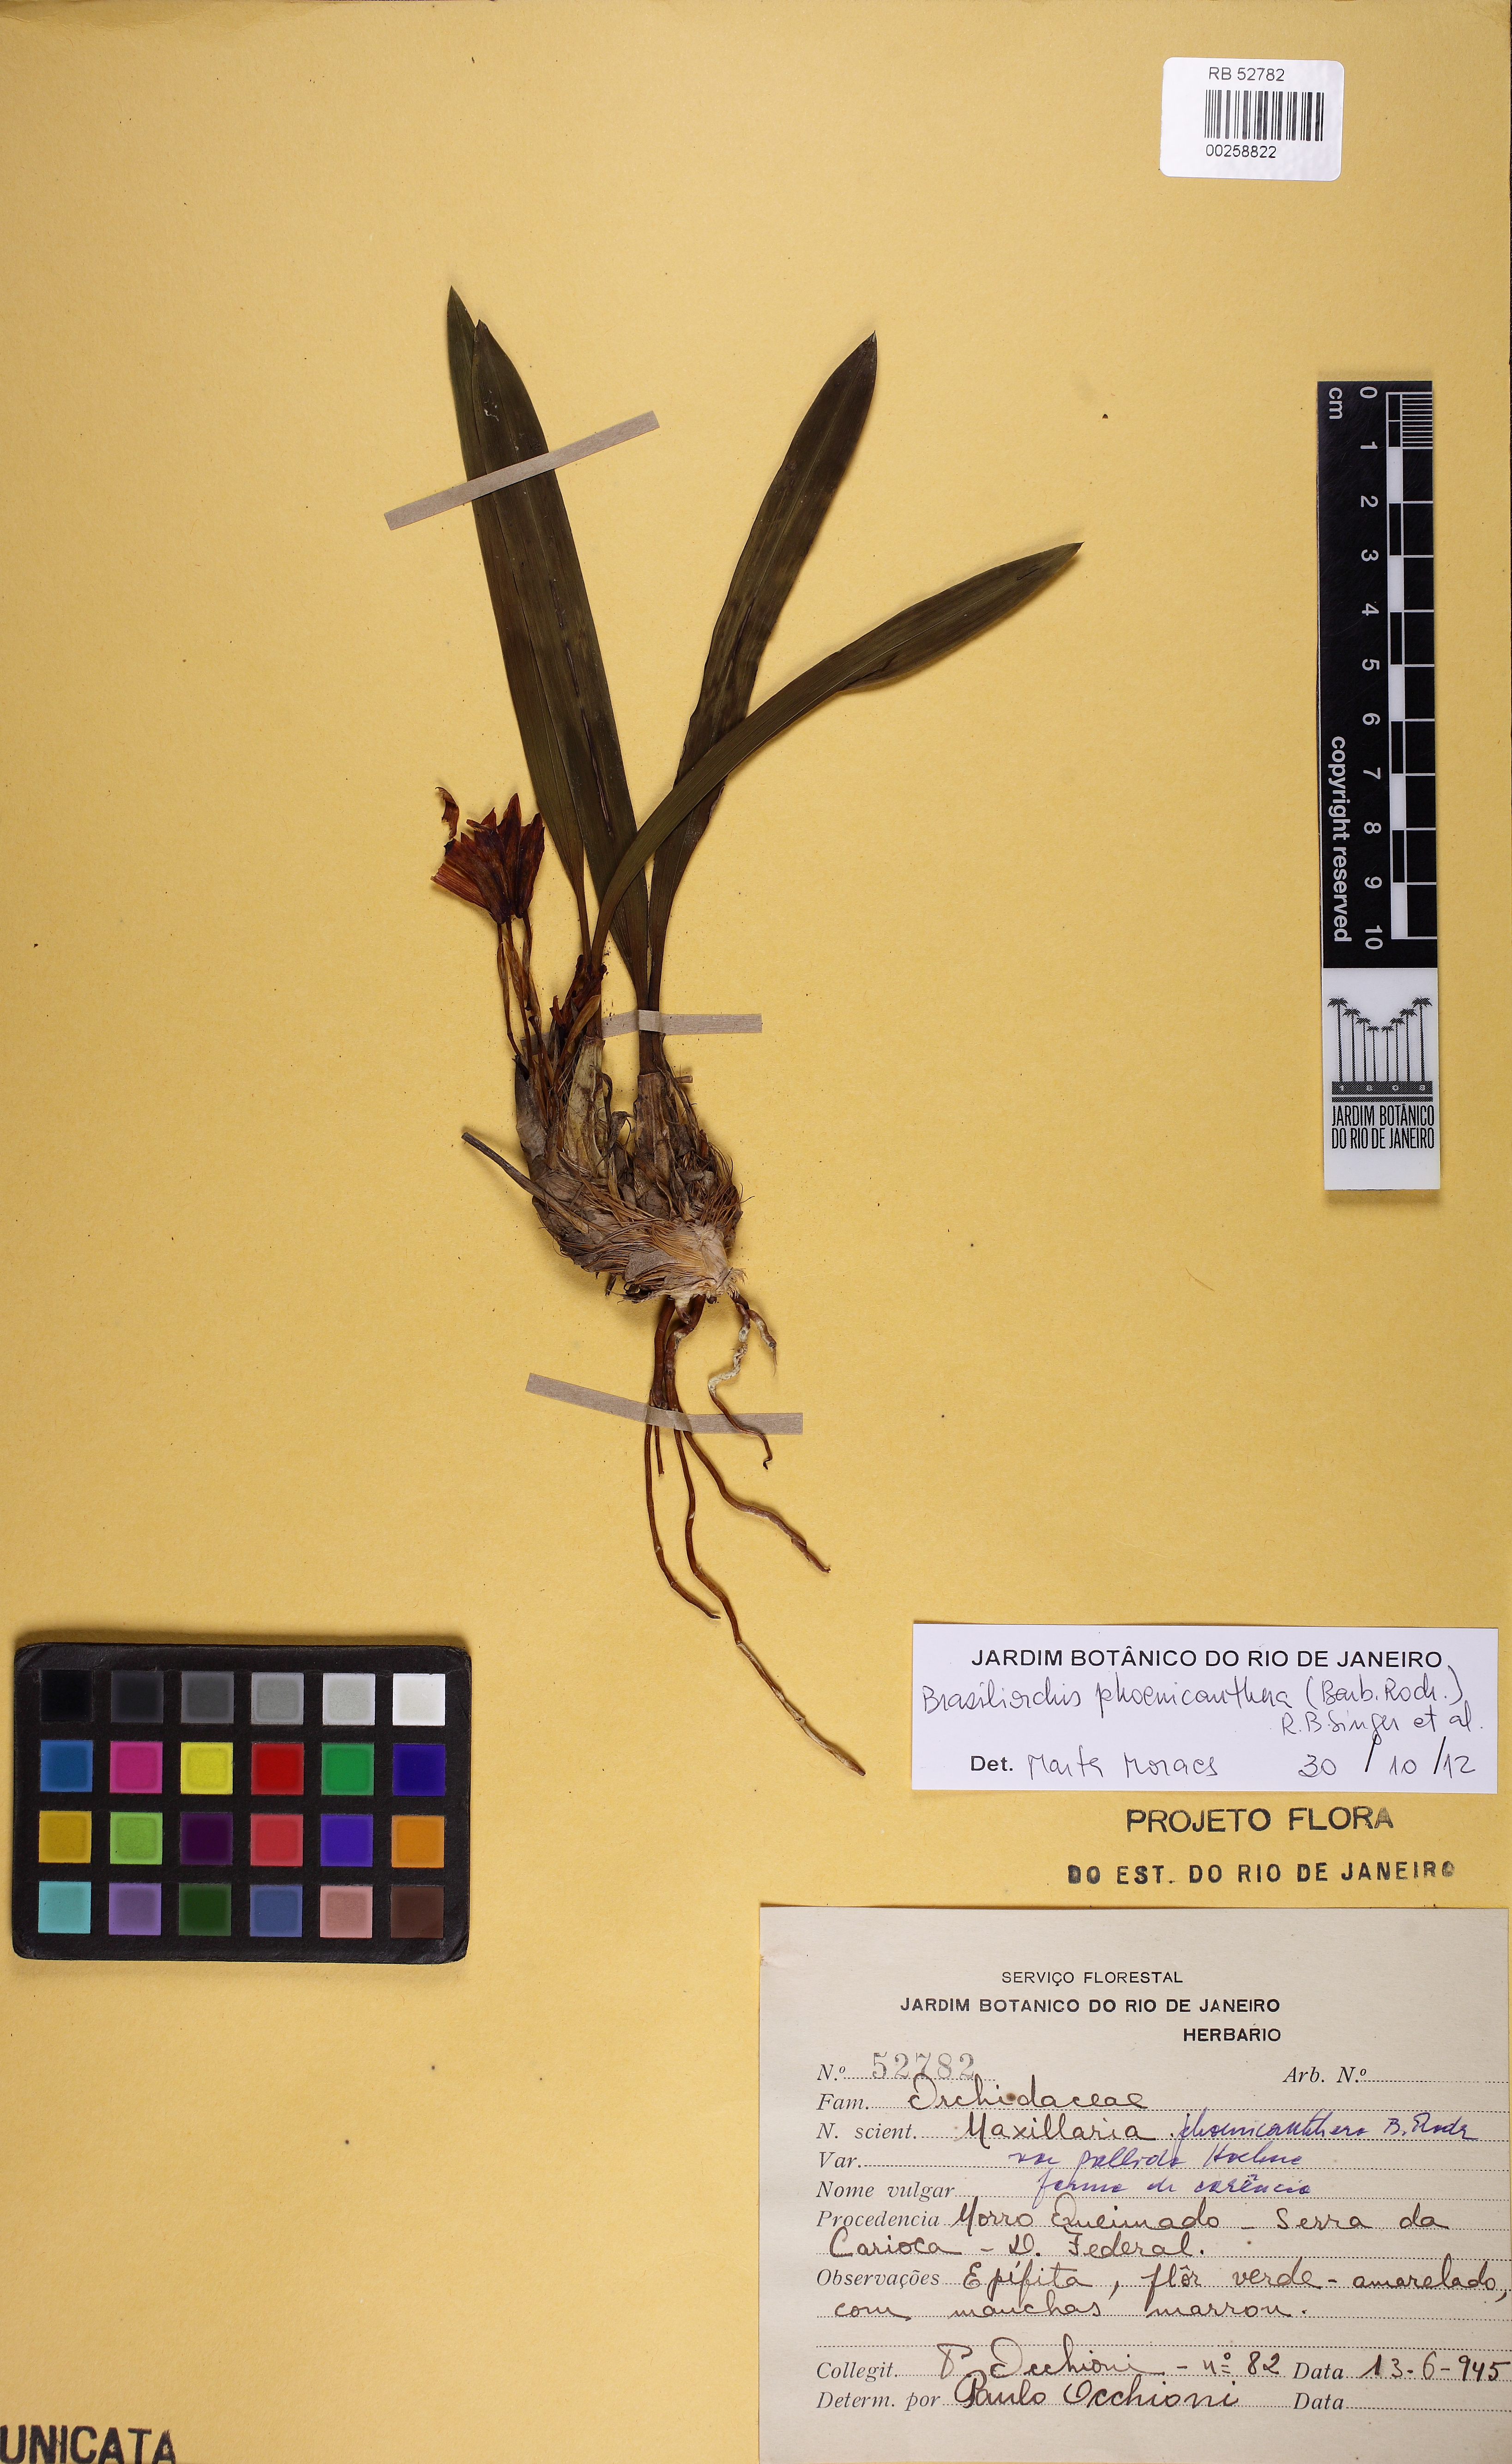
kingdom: Plantae
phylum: Tracheophyta
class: Liliopsida
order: Asparagales
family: Orchidaceae
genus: Maxillaria
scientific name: Maxillaria phoenicanthera
